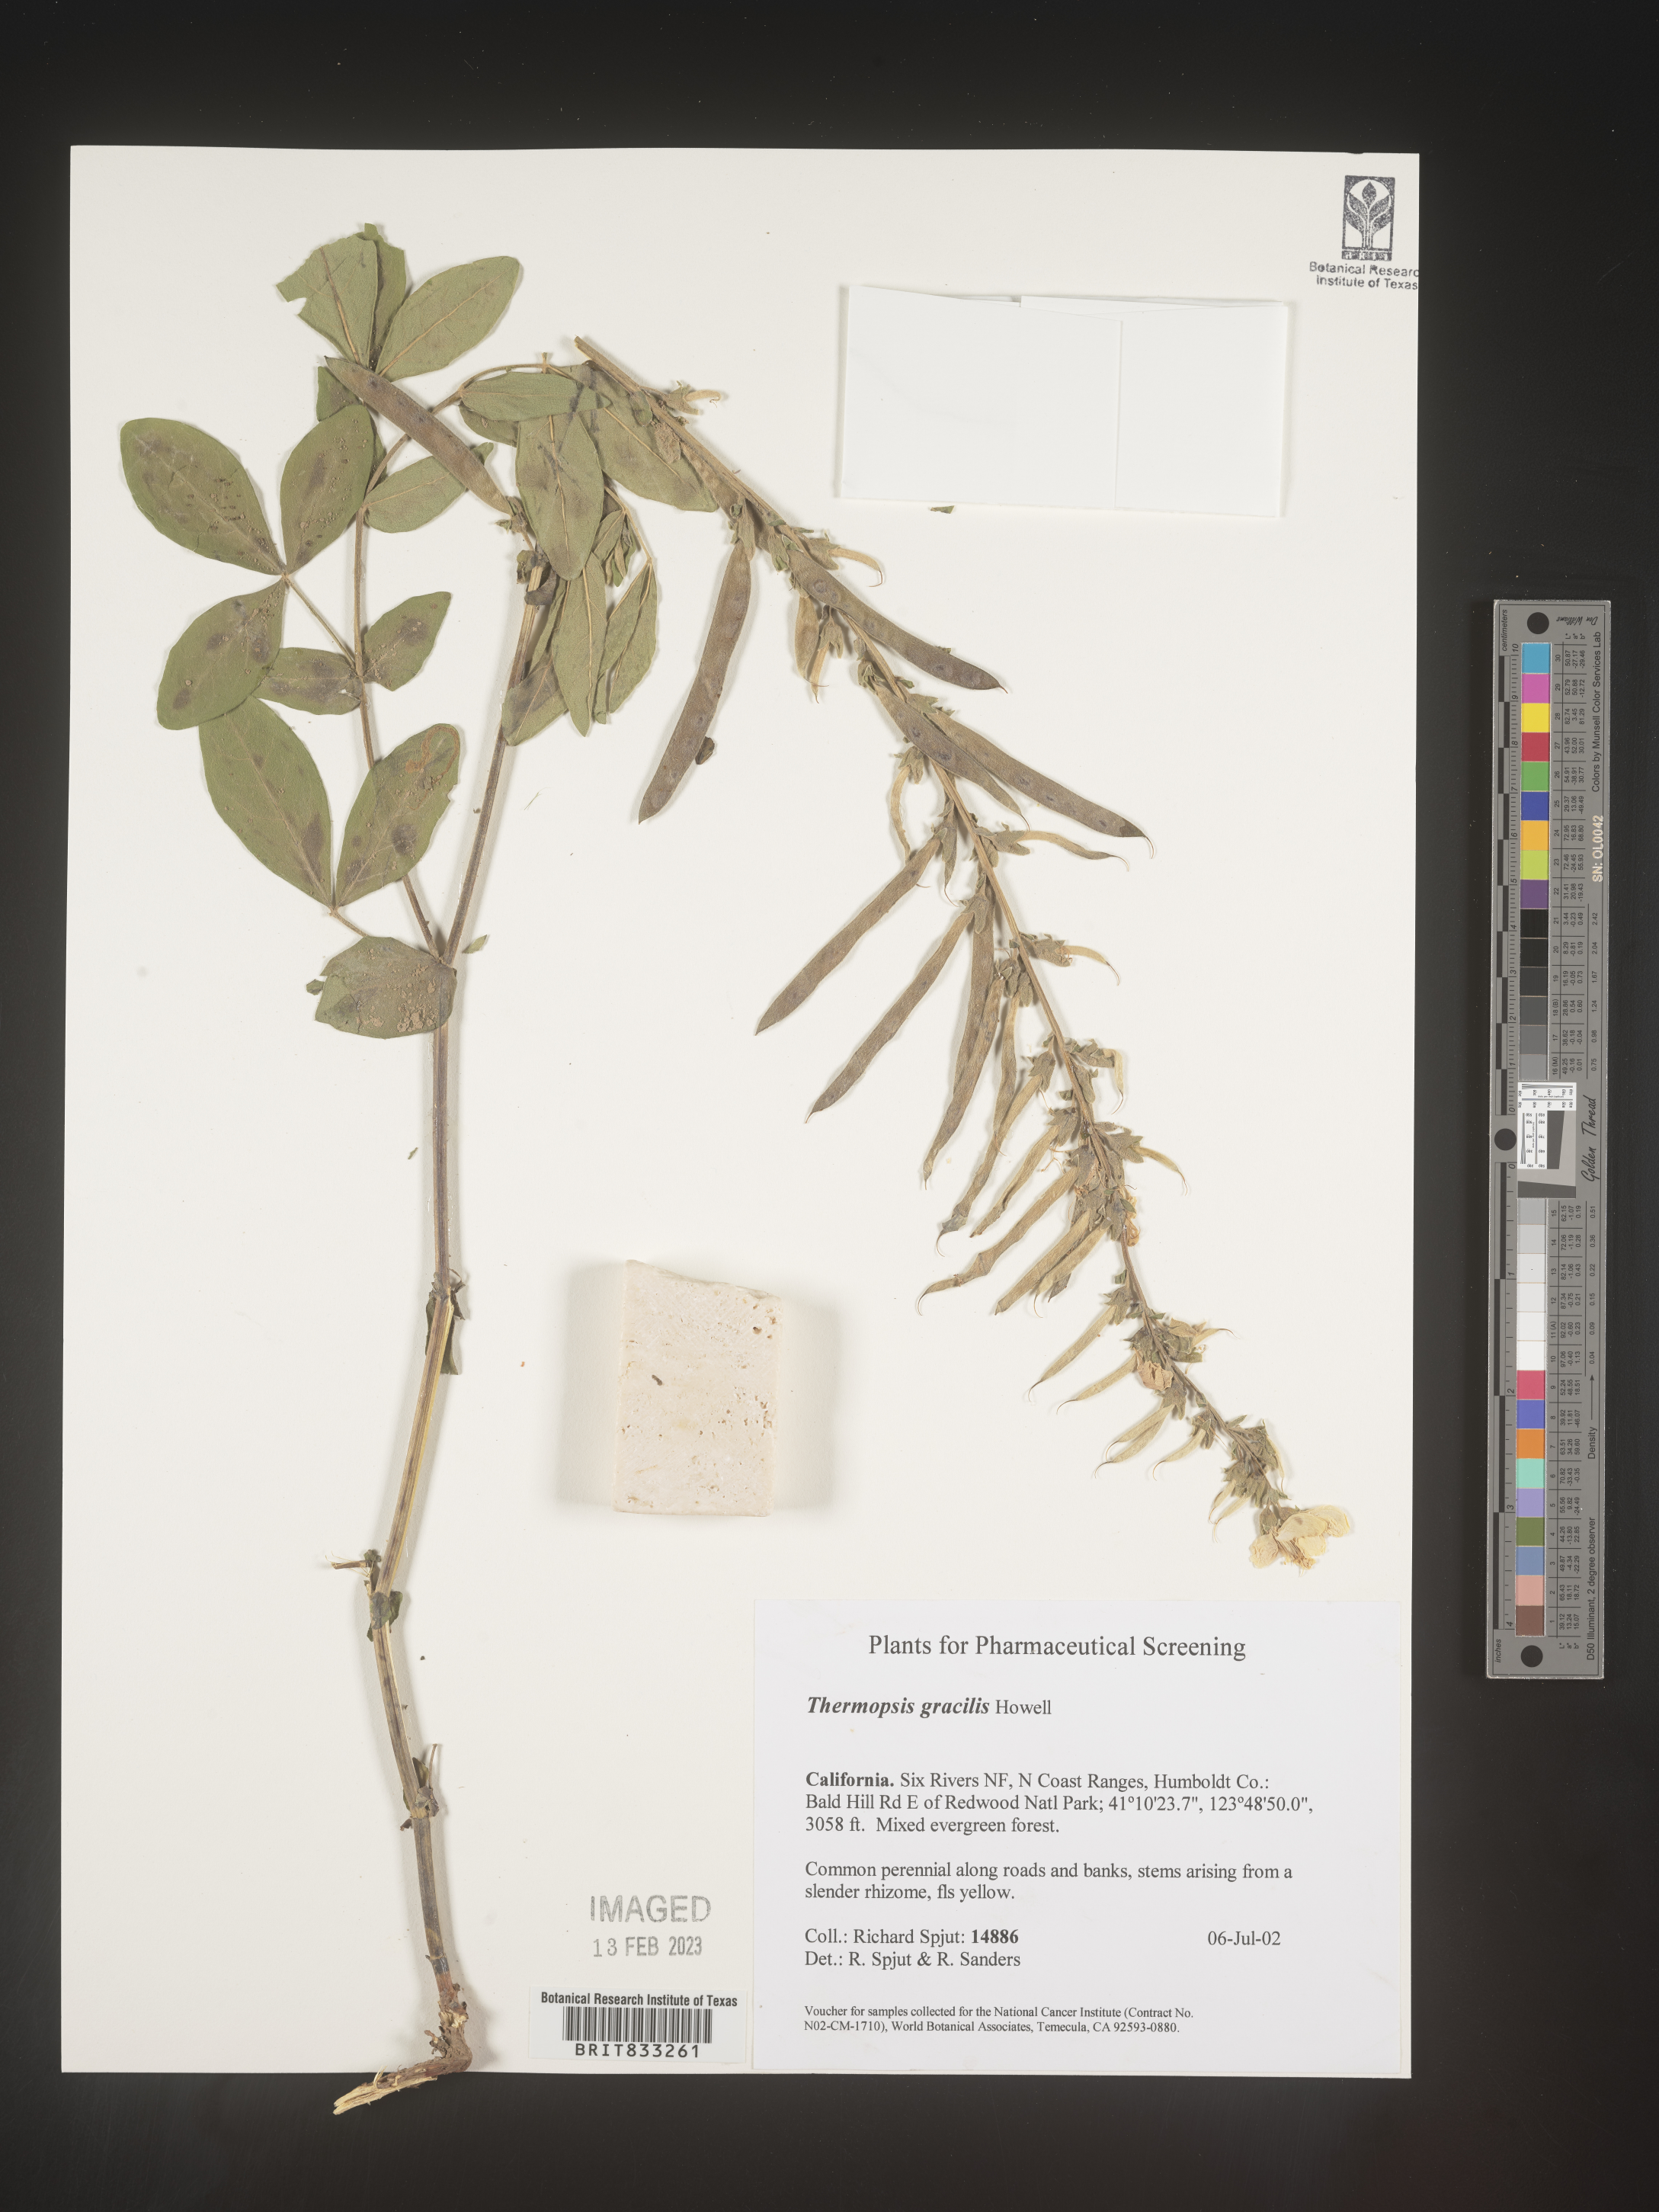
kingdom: Plantae
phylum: Tracheophyta
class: Magnoliopsida
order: Fabales
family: Fabaceae
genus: Thermopsis
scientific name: Thermopsis gracilis
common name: Slender golden-banner
